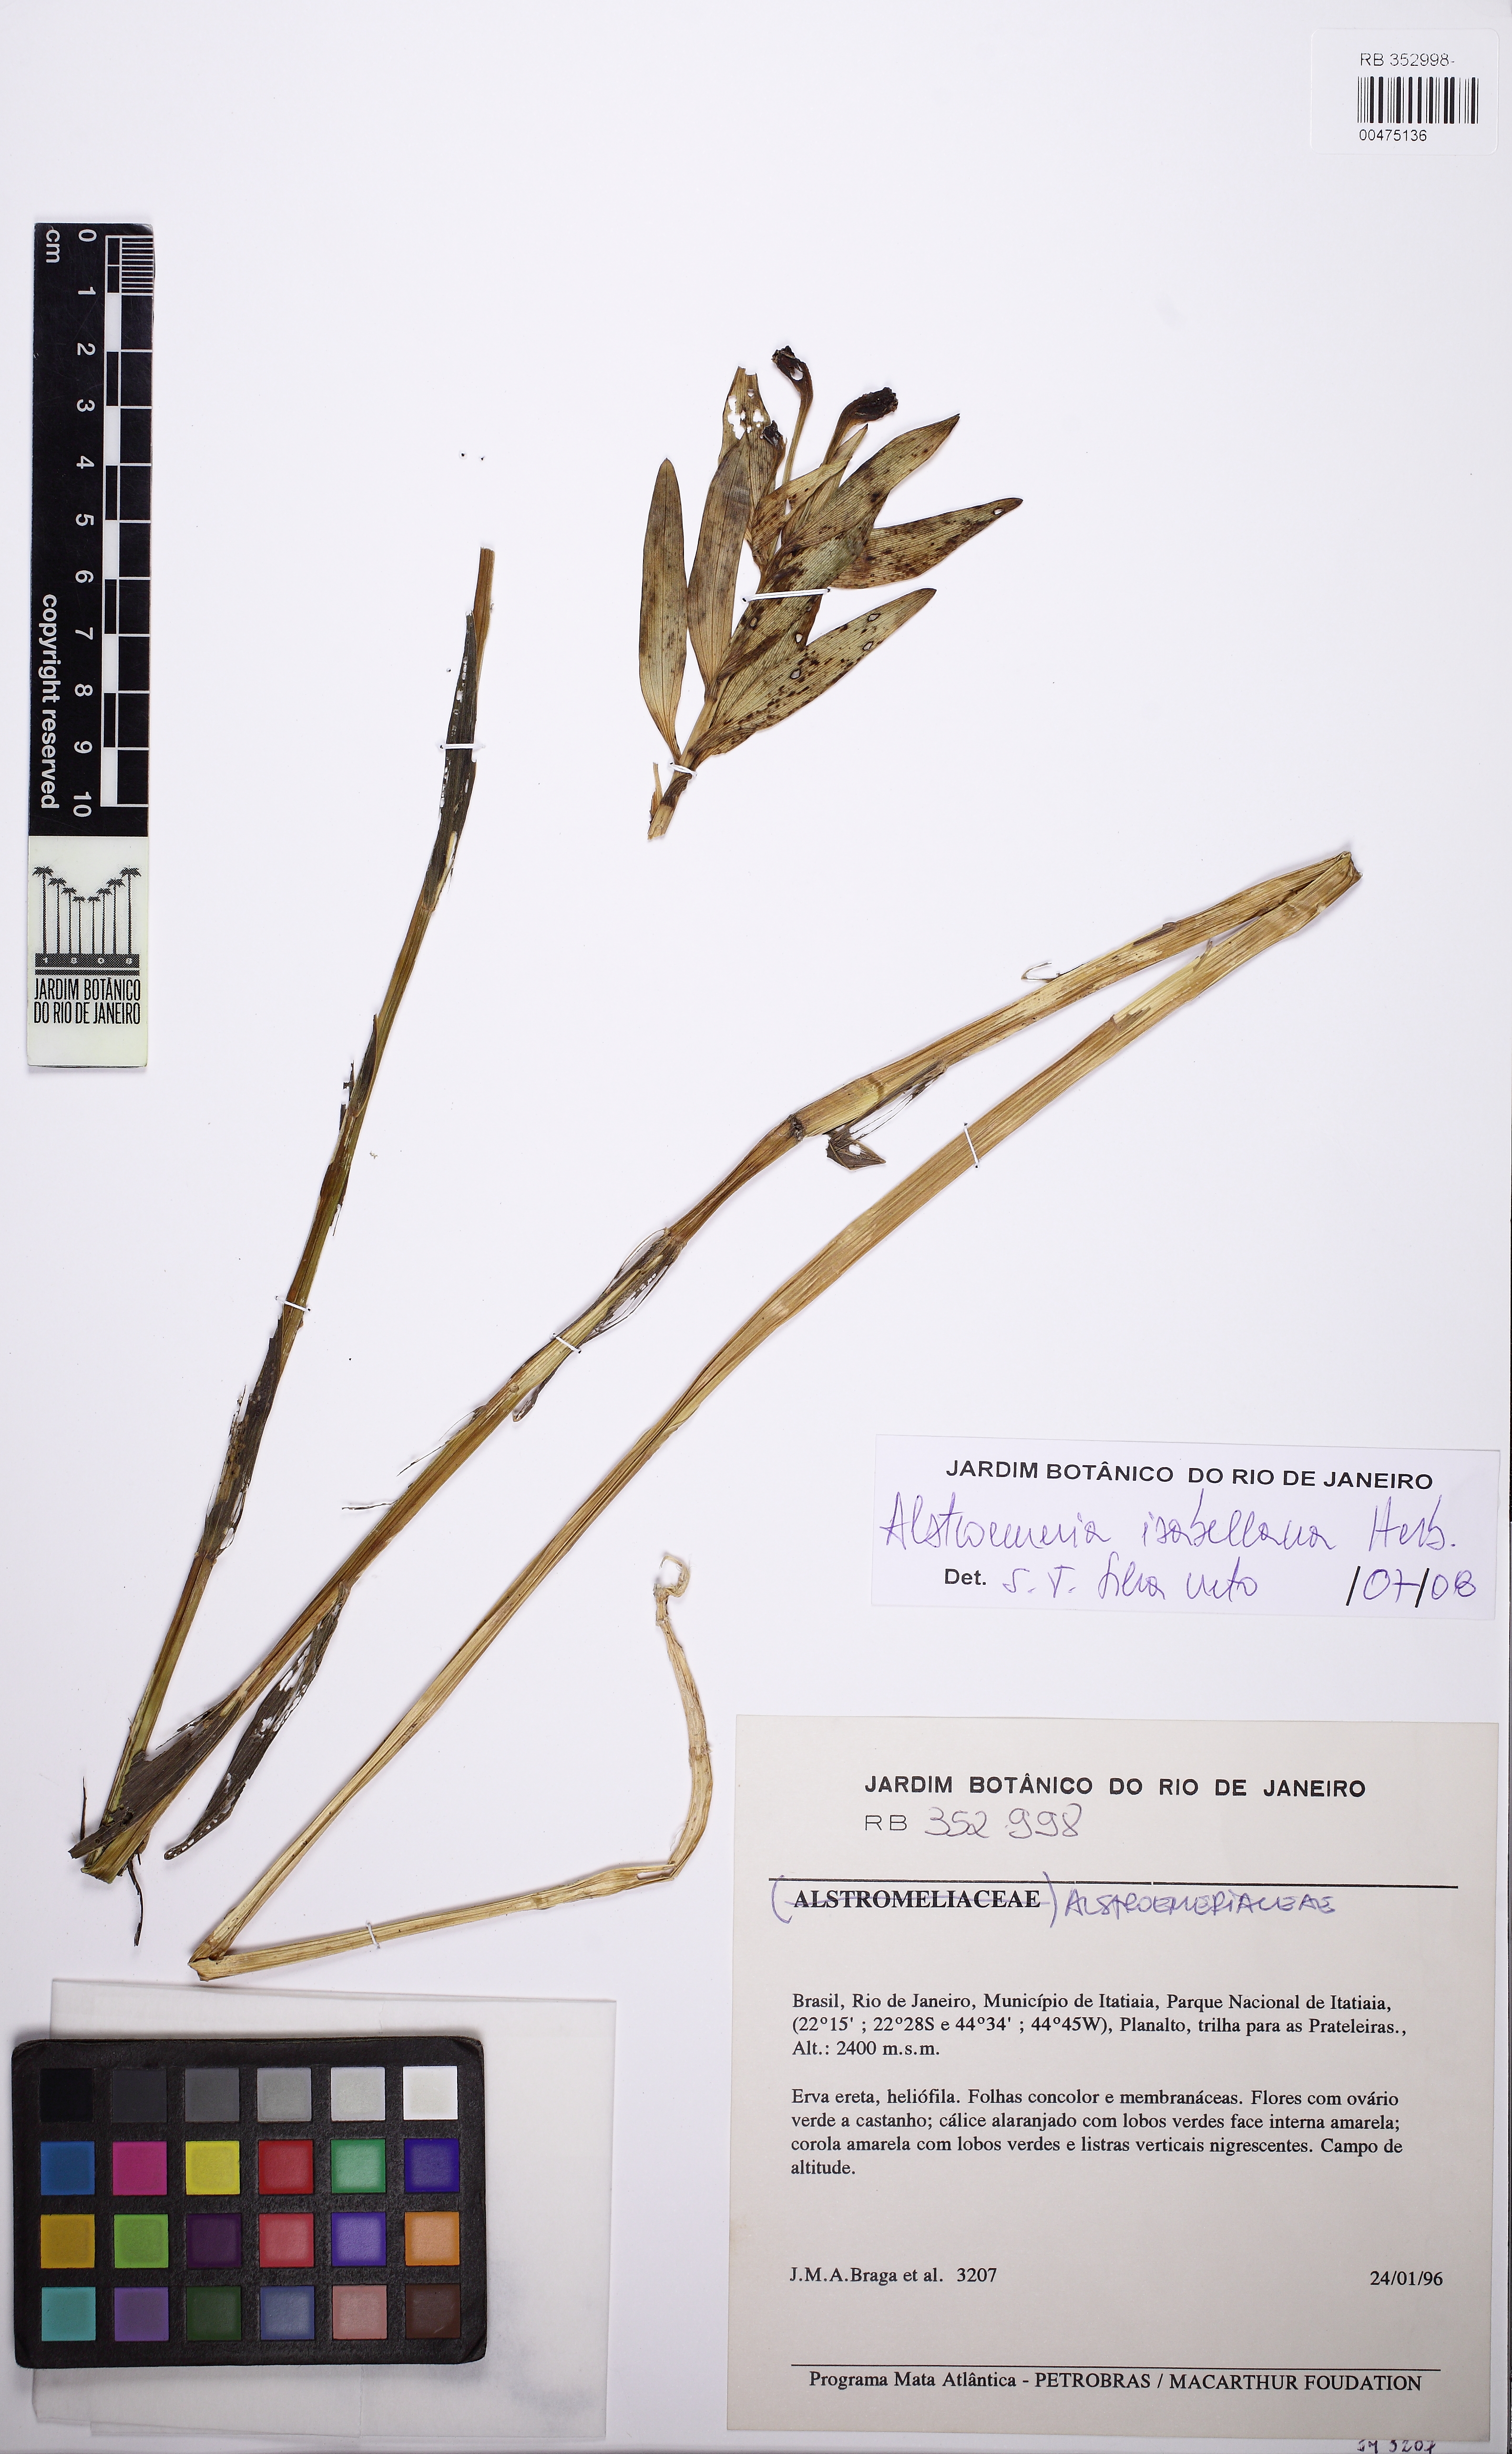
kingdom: Plantae
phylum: Tracheophyta
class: Liliopsida
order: Liliales
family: Alstroemeriaceae
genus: Alstroemeria
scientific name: Alstroemeria isabelleana
